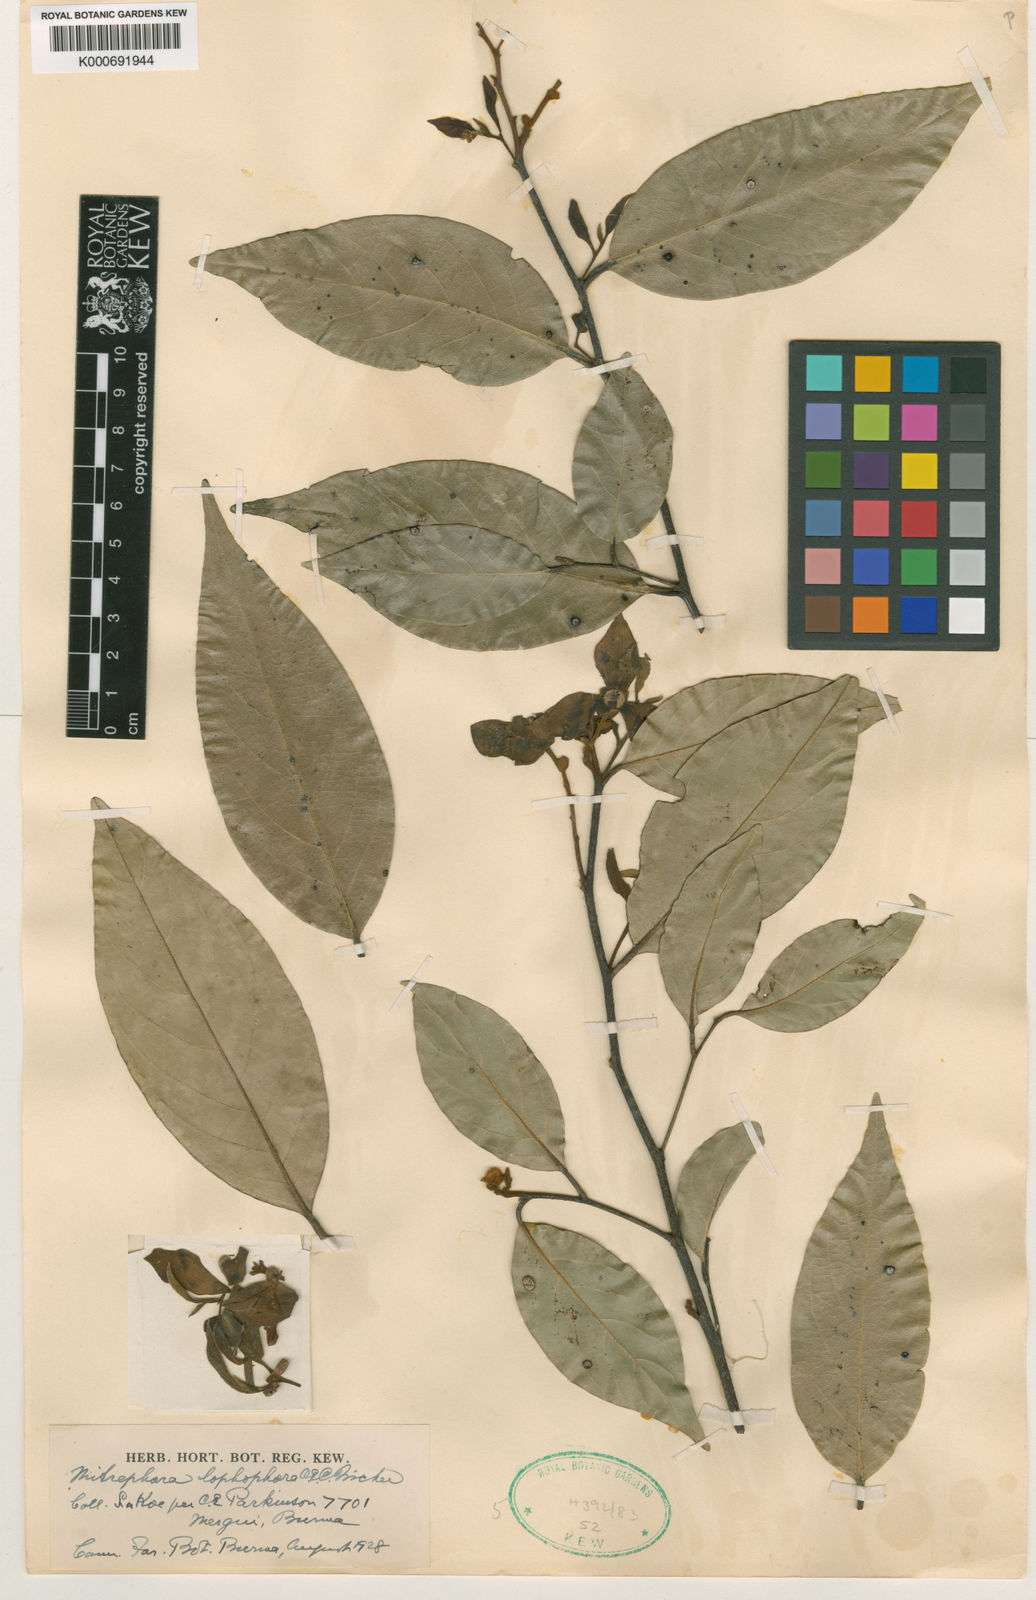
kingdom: Plantae
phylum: Tracheophyta
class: Magnoliopsida
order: Magnoliales
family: Annonaceae
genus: Mitrephora
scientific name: Mitrephora keithii
